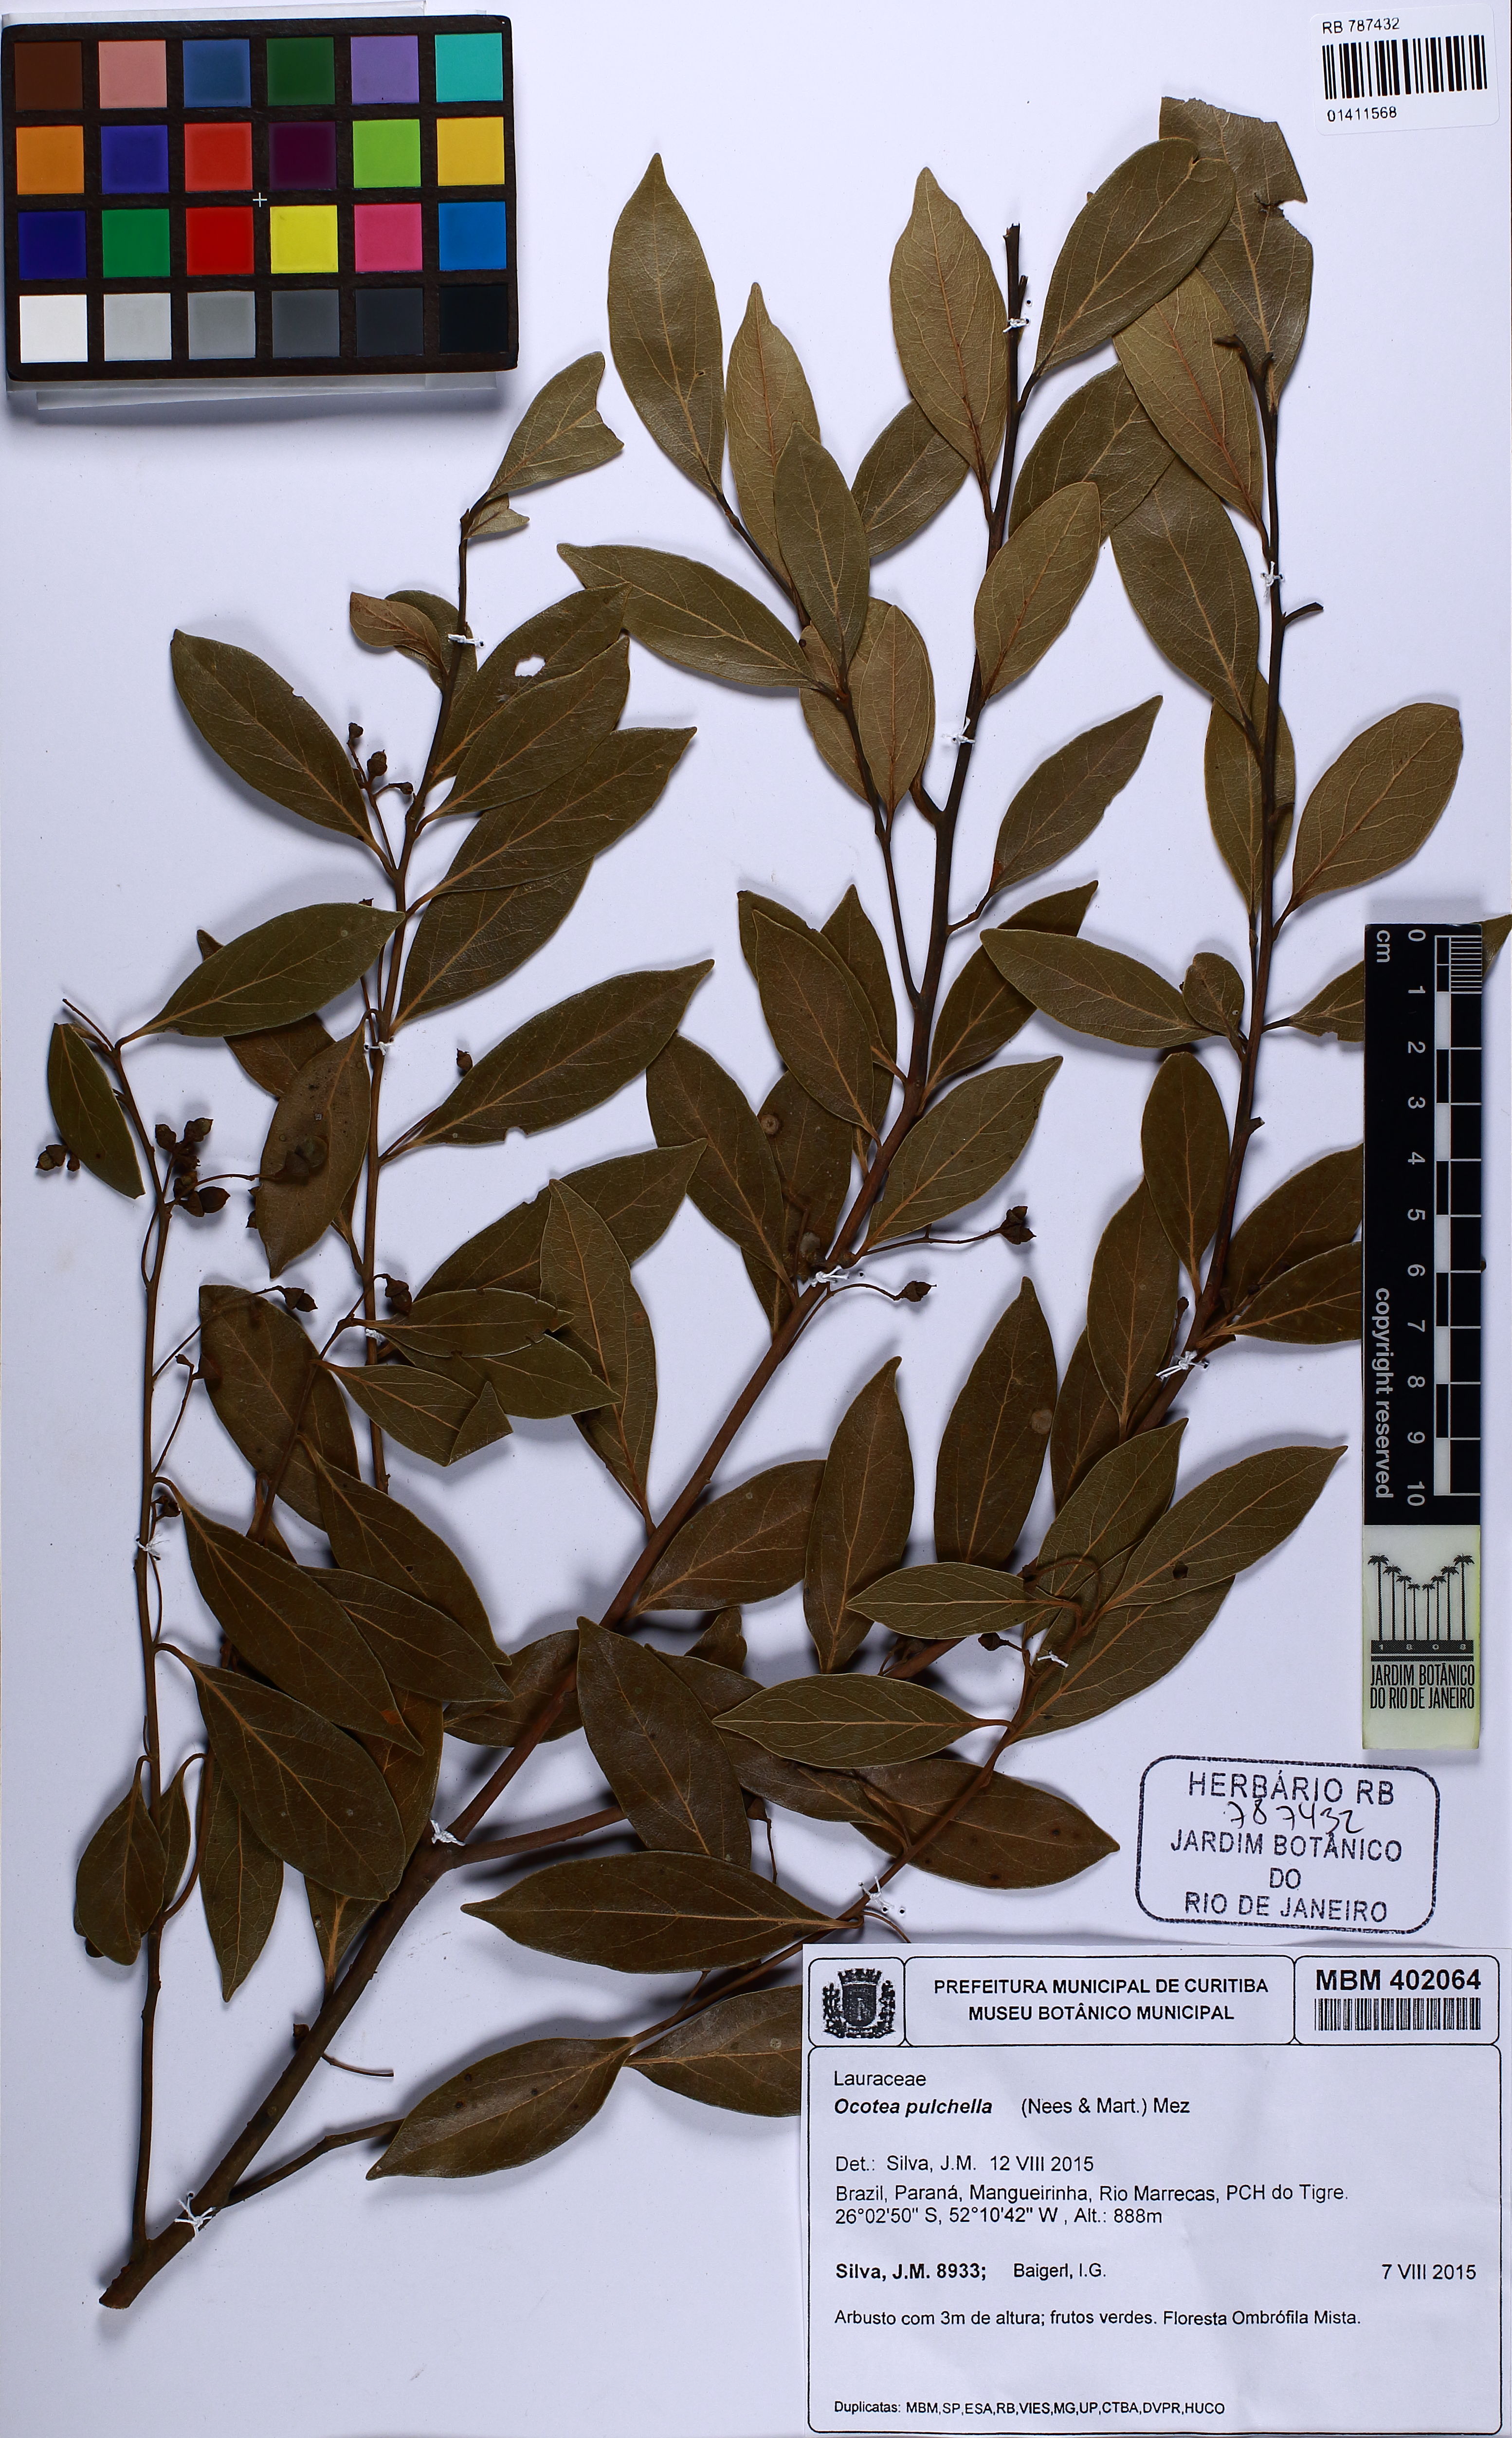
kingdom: Plantae
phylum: Tracheophyta
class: Magnoliopsida
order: Laurales
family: Lauraceae
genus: Mespilodaphne
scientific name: Mespilodaphne pulchella
